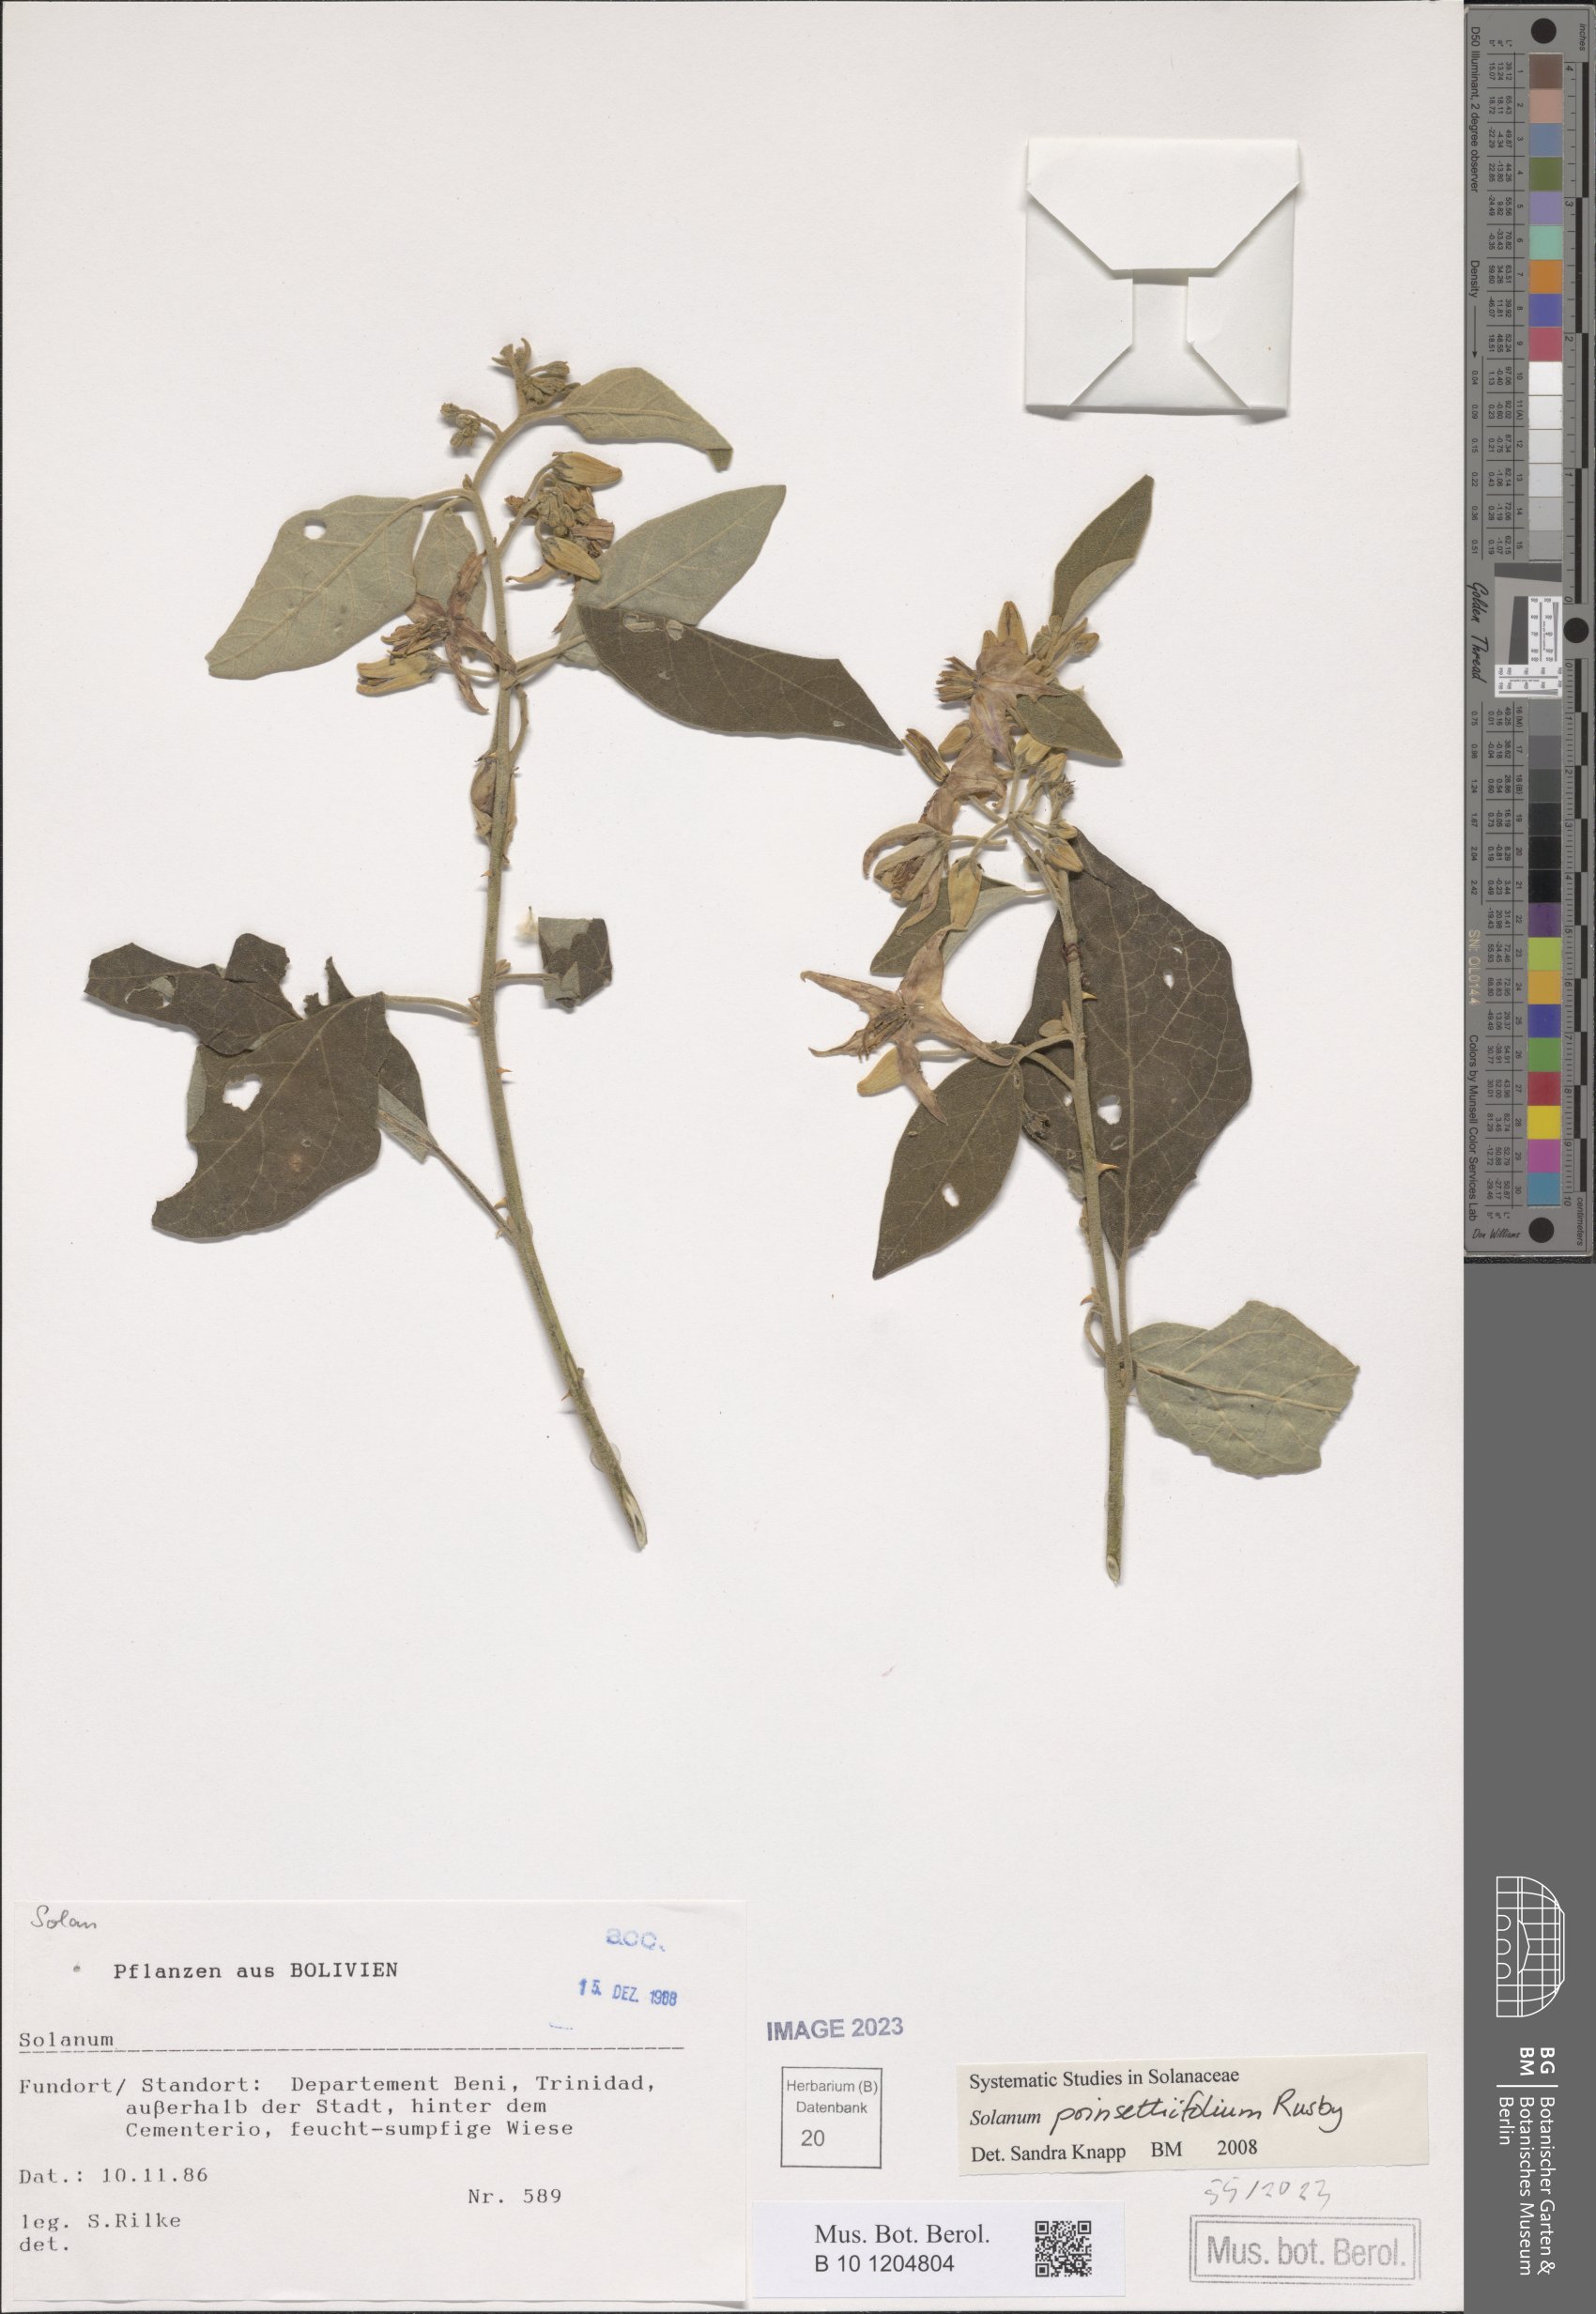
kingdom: Plantae
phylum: Tracheophyta
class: Magnoliopsida
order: Solanales
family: Solanaceae
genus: Solanum
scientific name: Solanum poinsettiifolium
